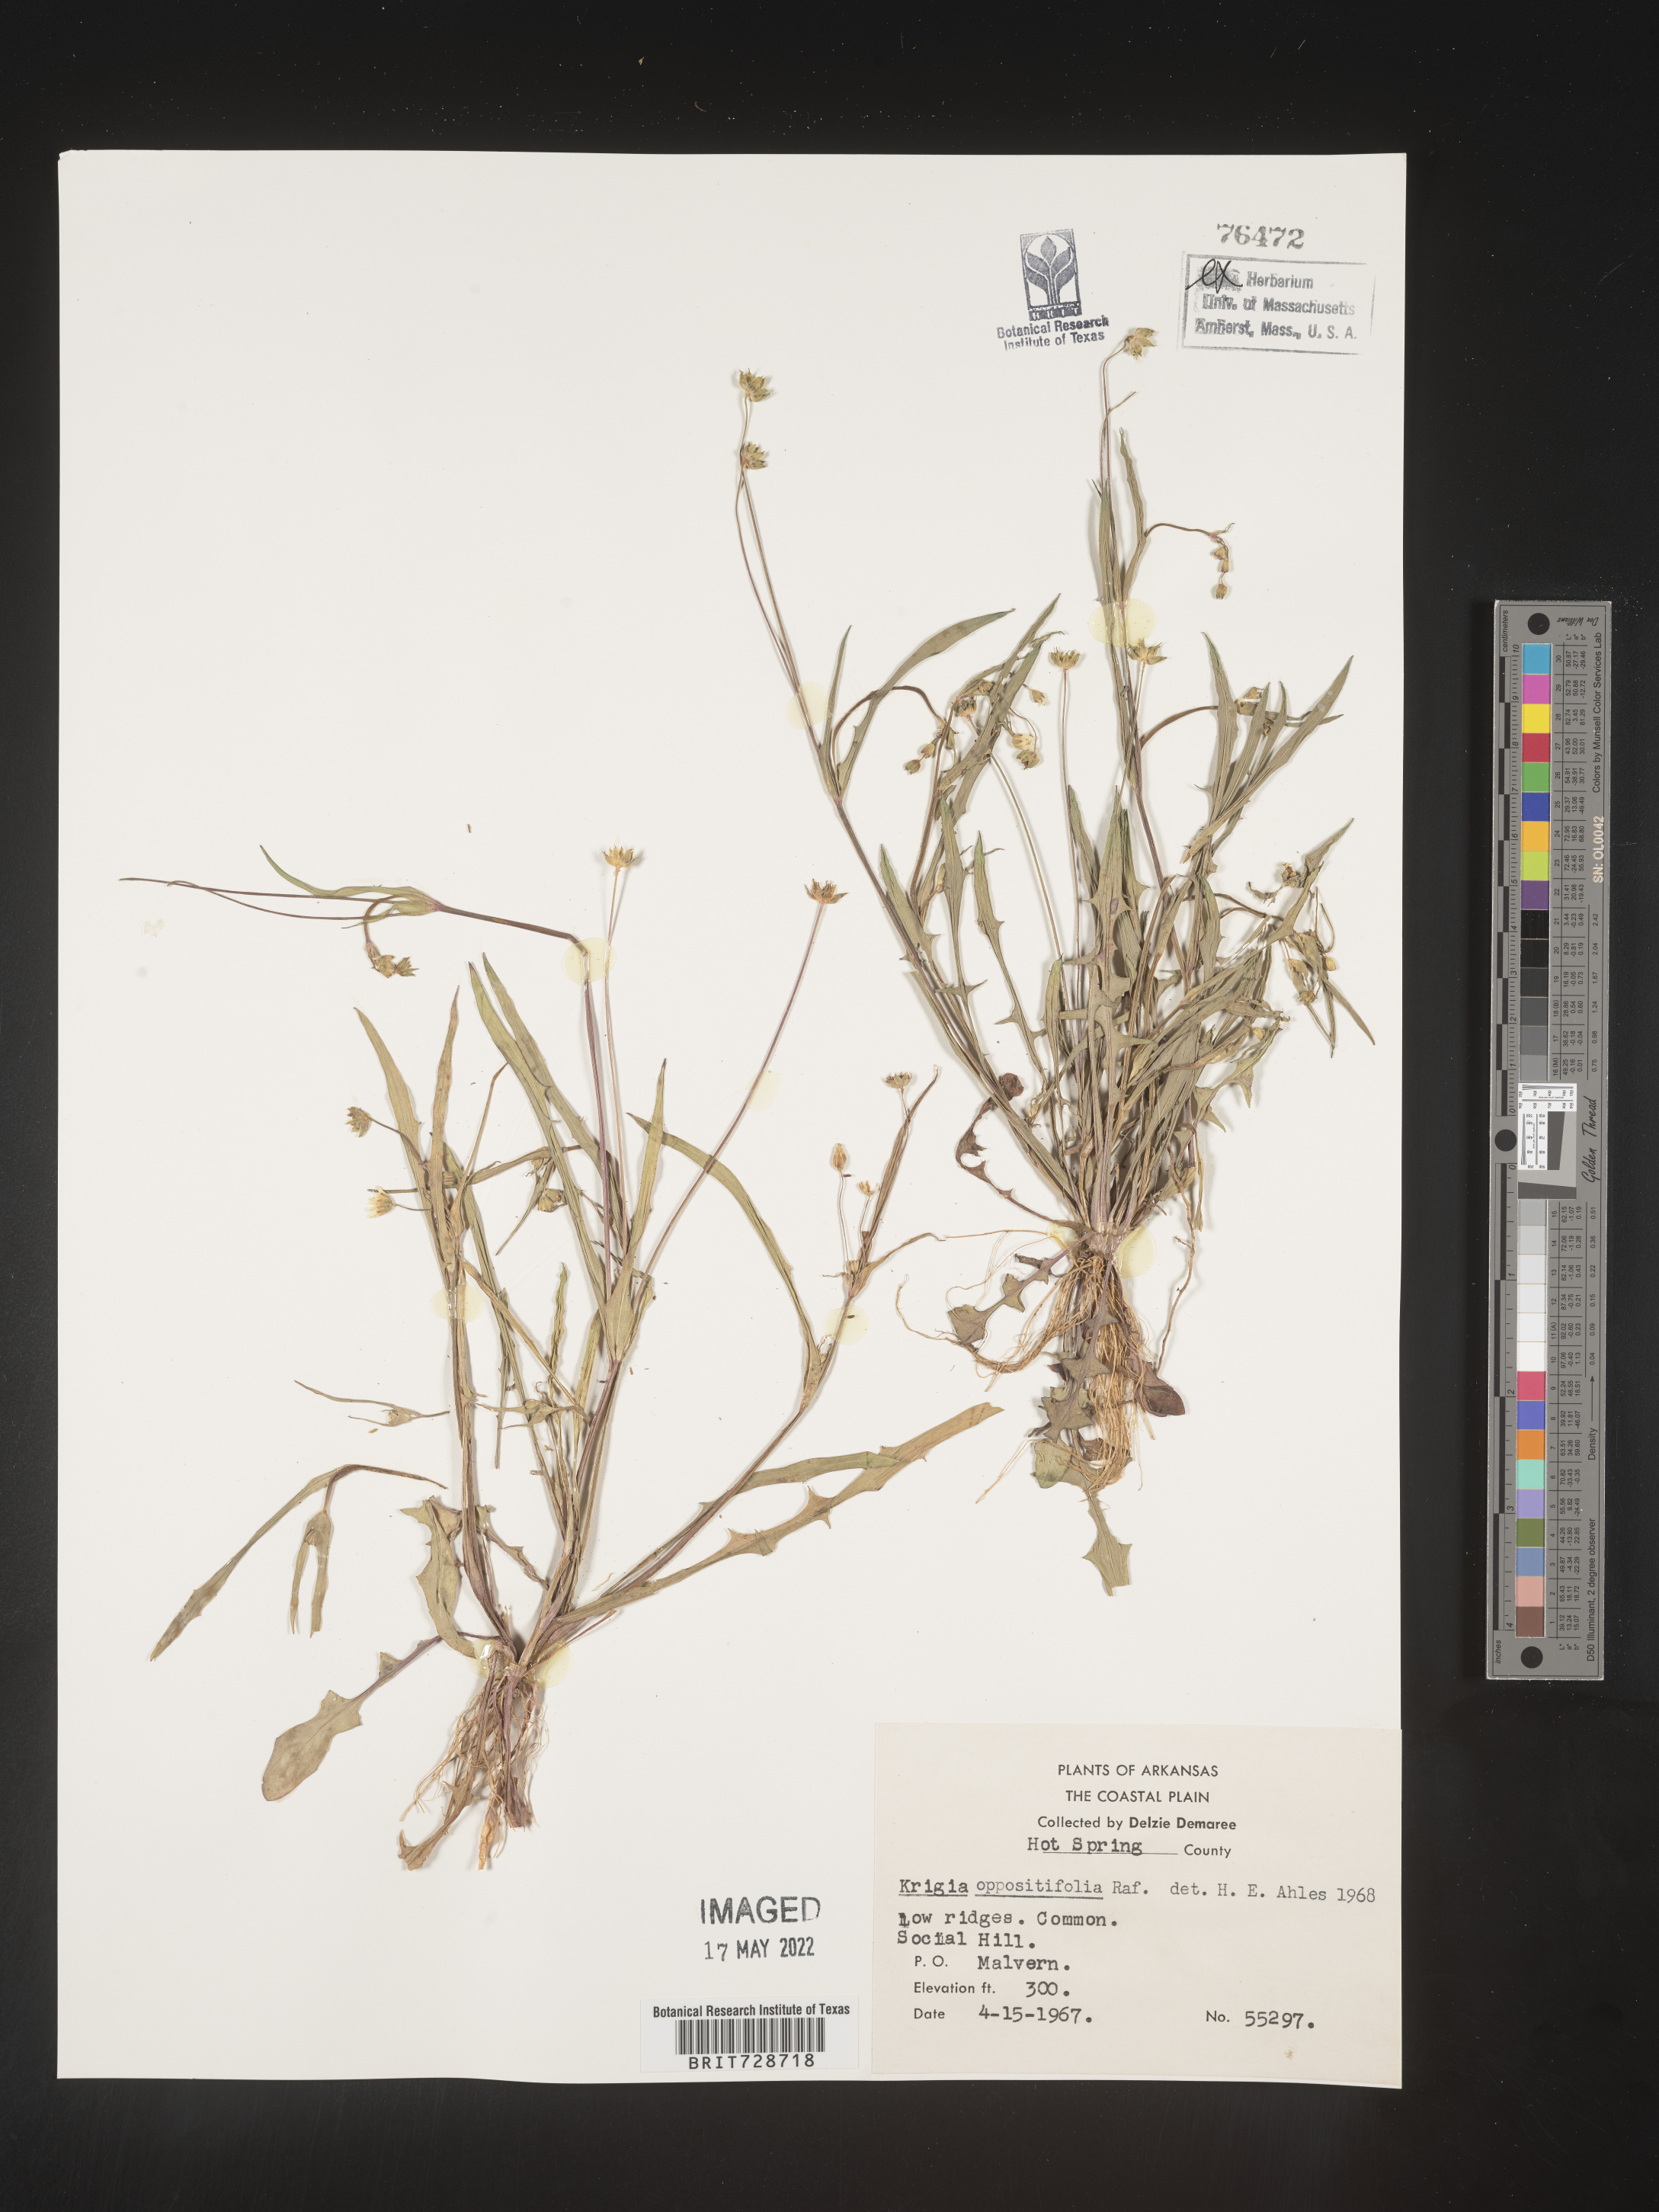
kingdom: Plantae
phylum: Tracheophyta
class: Magnoliopsida
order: Asterales
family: Asteraceae
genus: Krigia
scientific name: Krigia cespitosa
